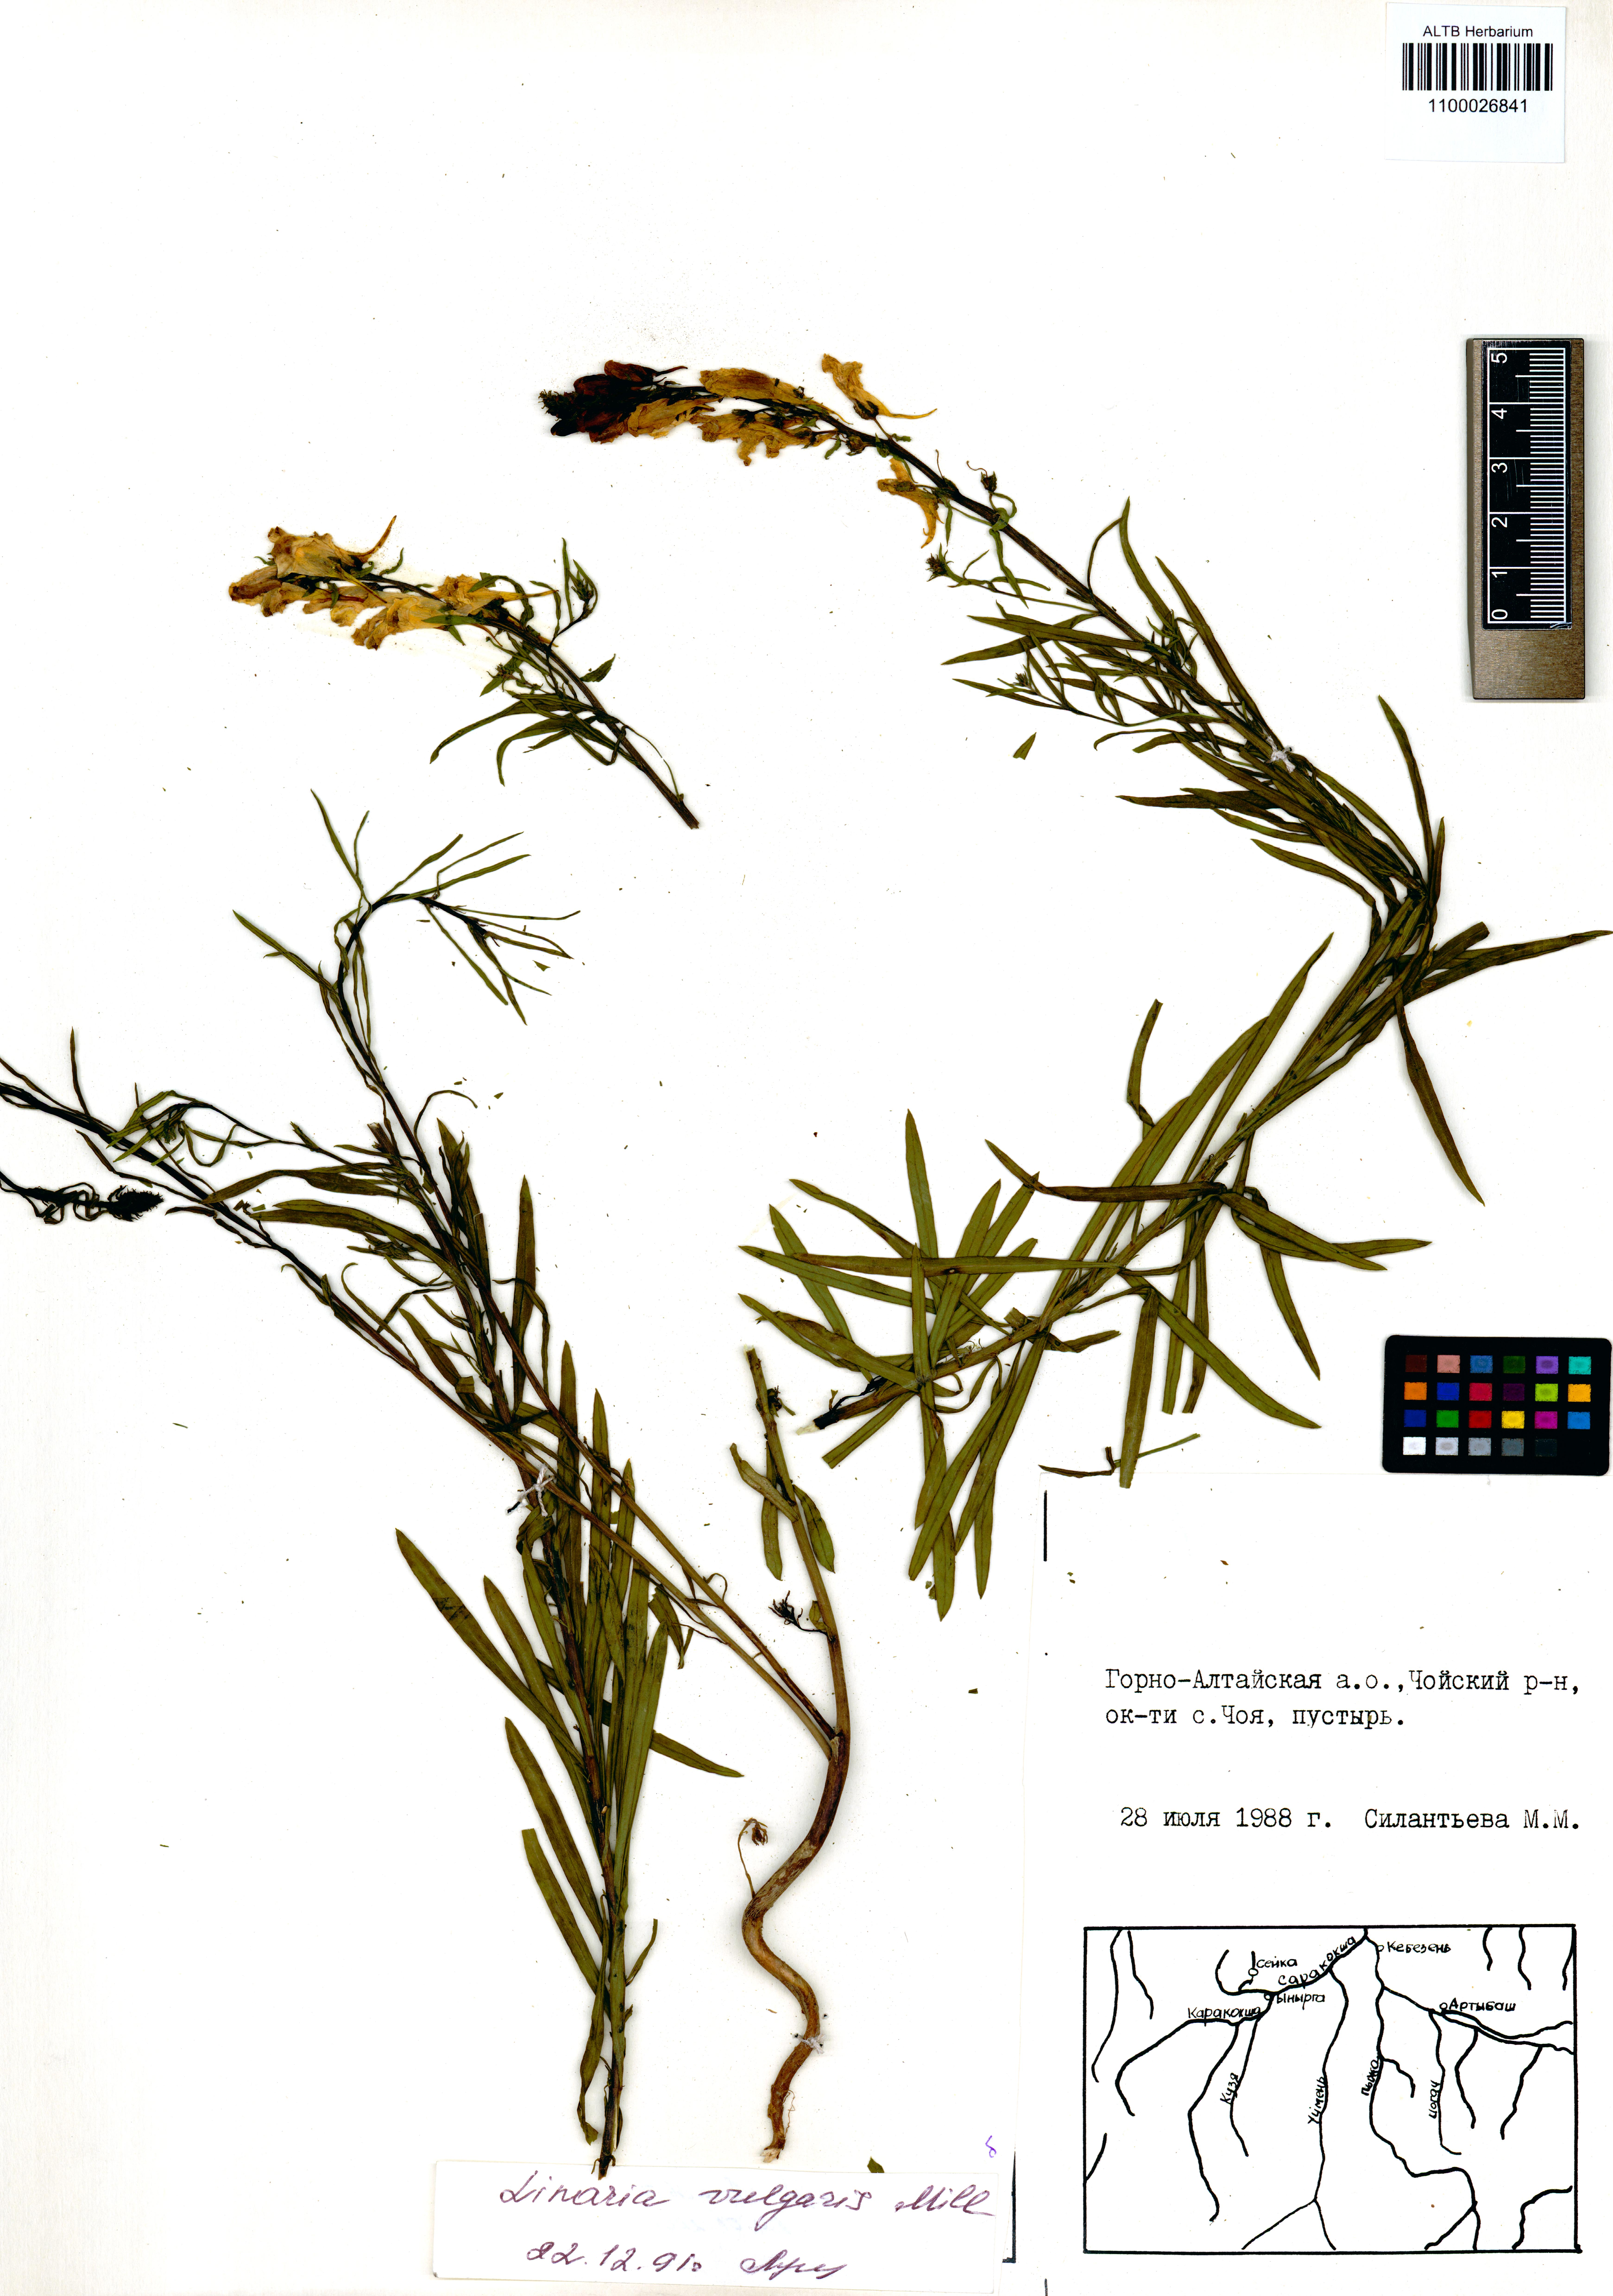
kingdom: Plantae
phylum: Tracheophyta
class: Magnoliopsida
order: Lamiales
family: Plantaginaceae
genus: Linaria
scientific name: Linaria vulgaris
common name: Butter and eggs
